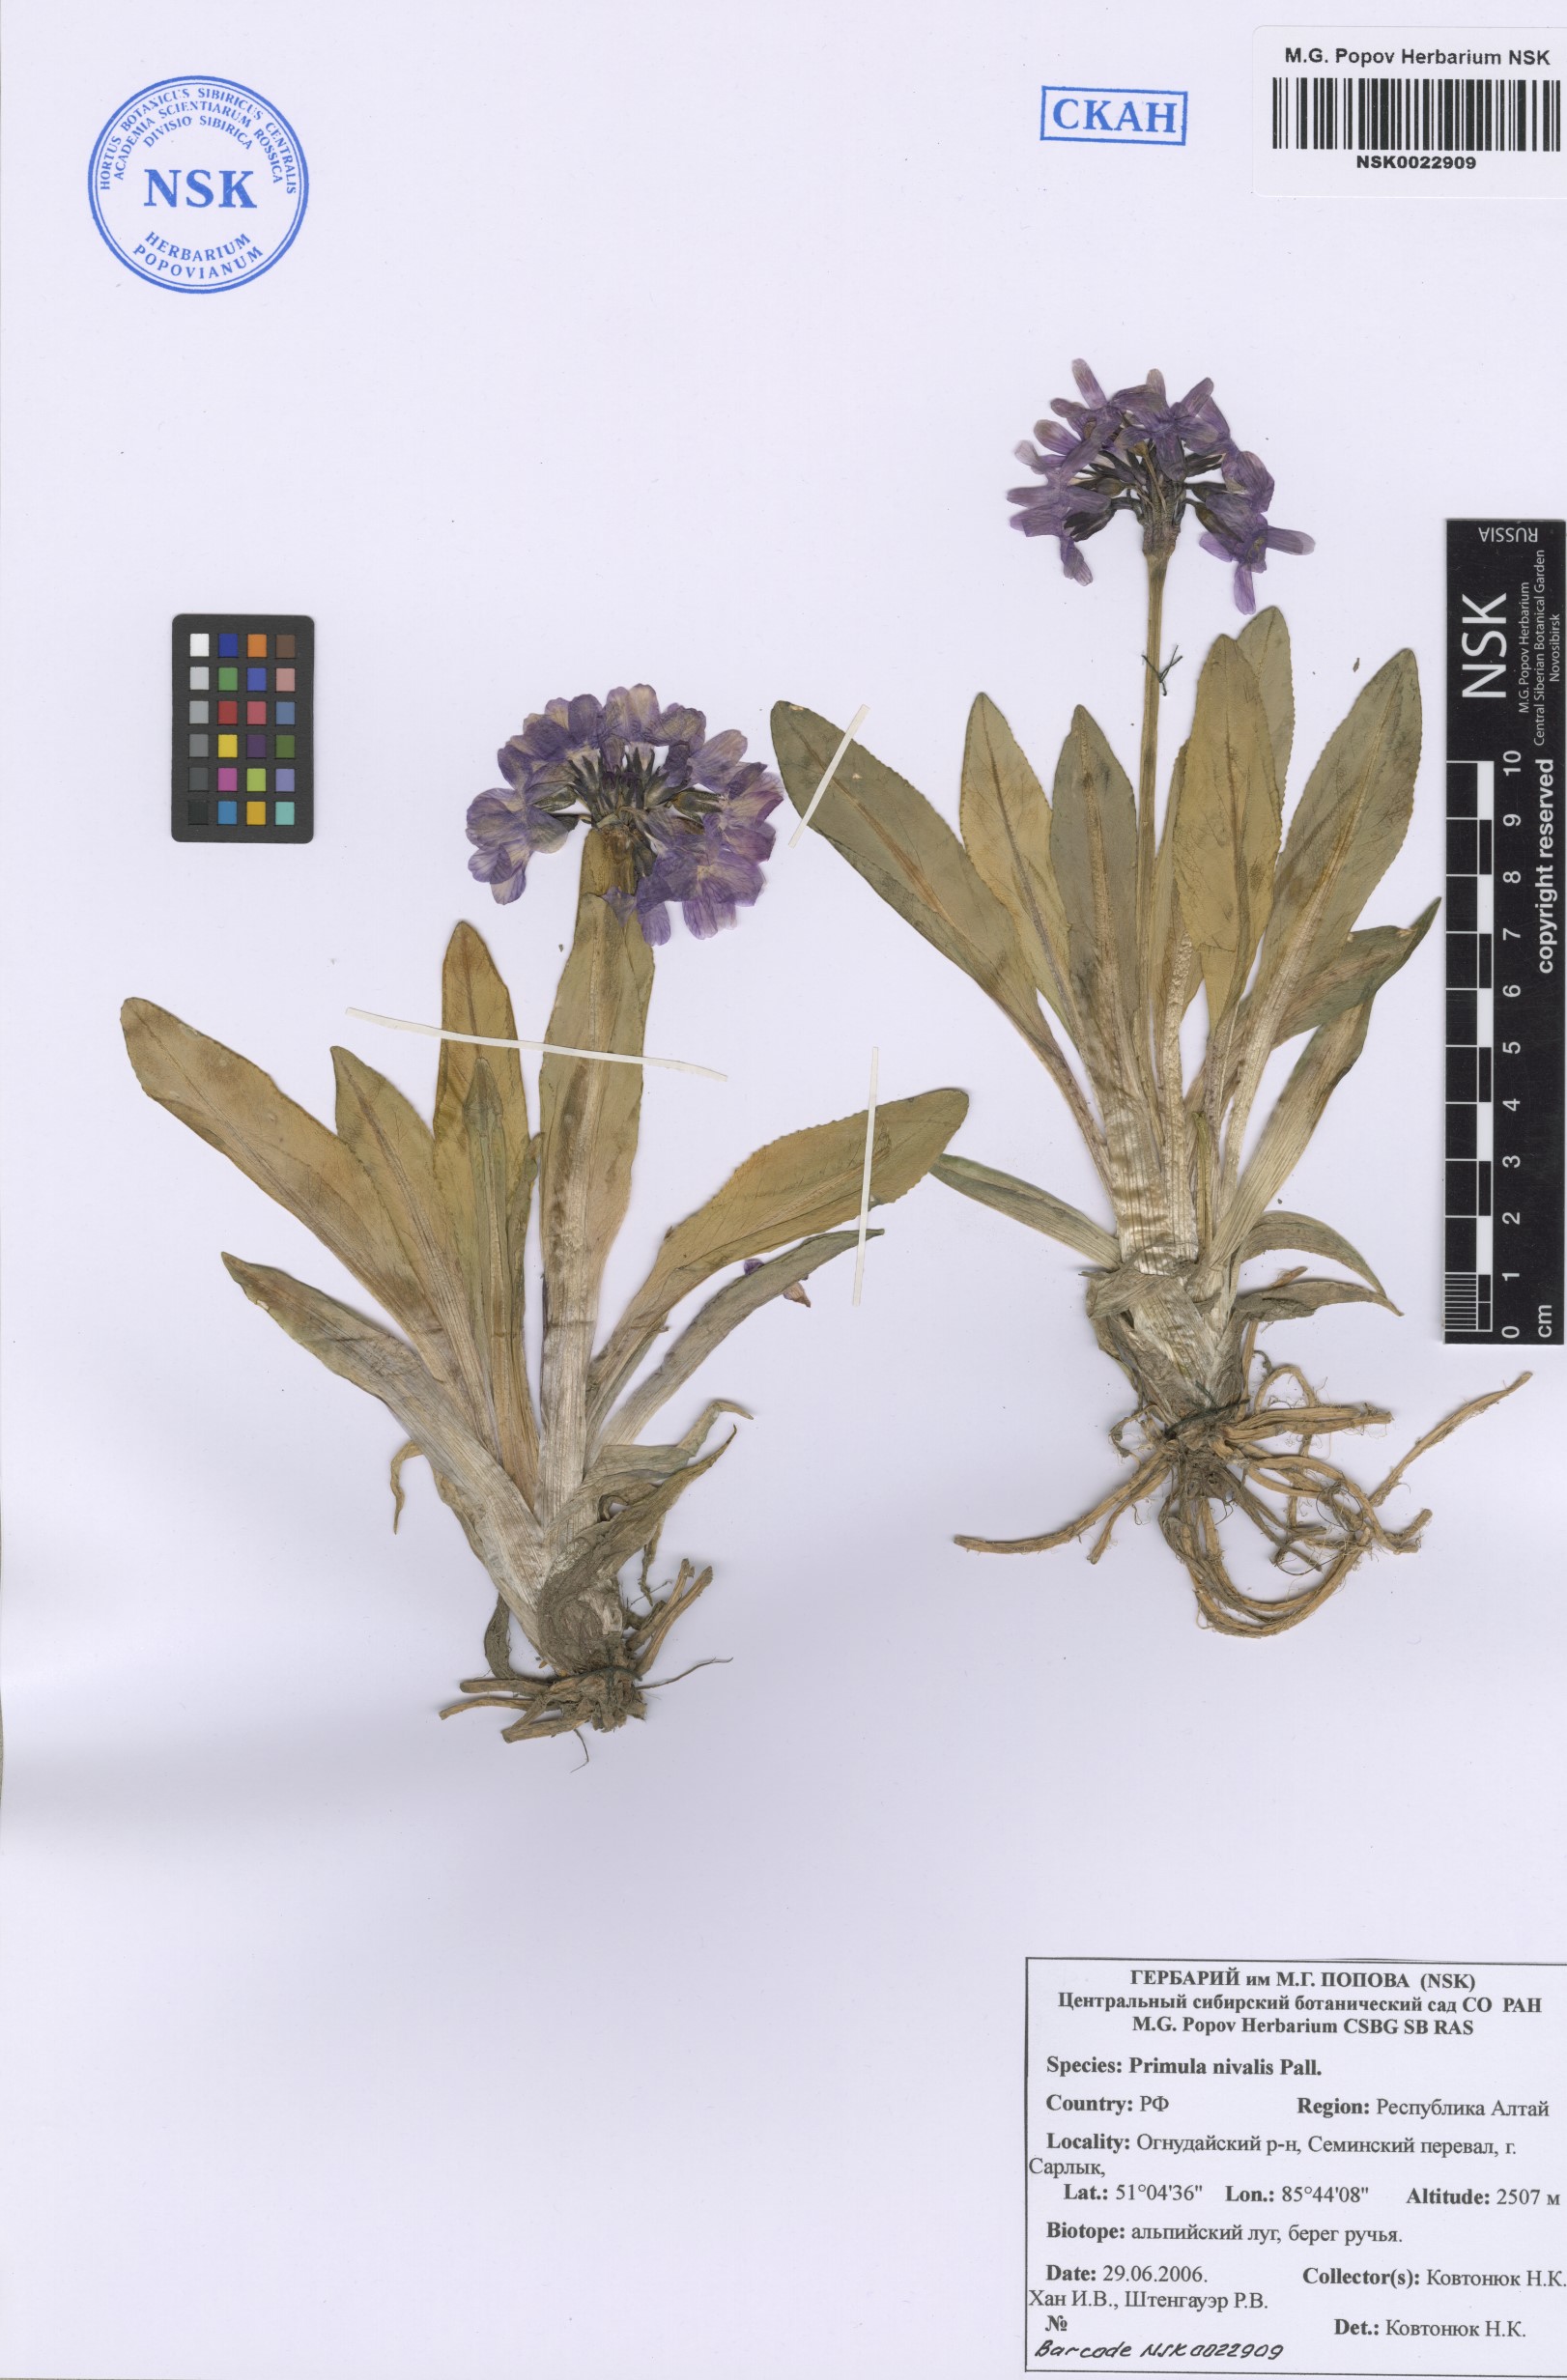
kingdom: Plantae
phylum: Tracheophyta
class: Magnoliopsida
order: Ericales
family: Primulaceae
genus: Primula
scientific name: Primula nivalis
